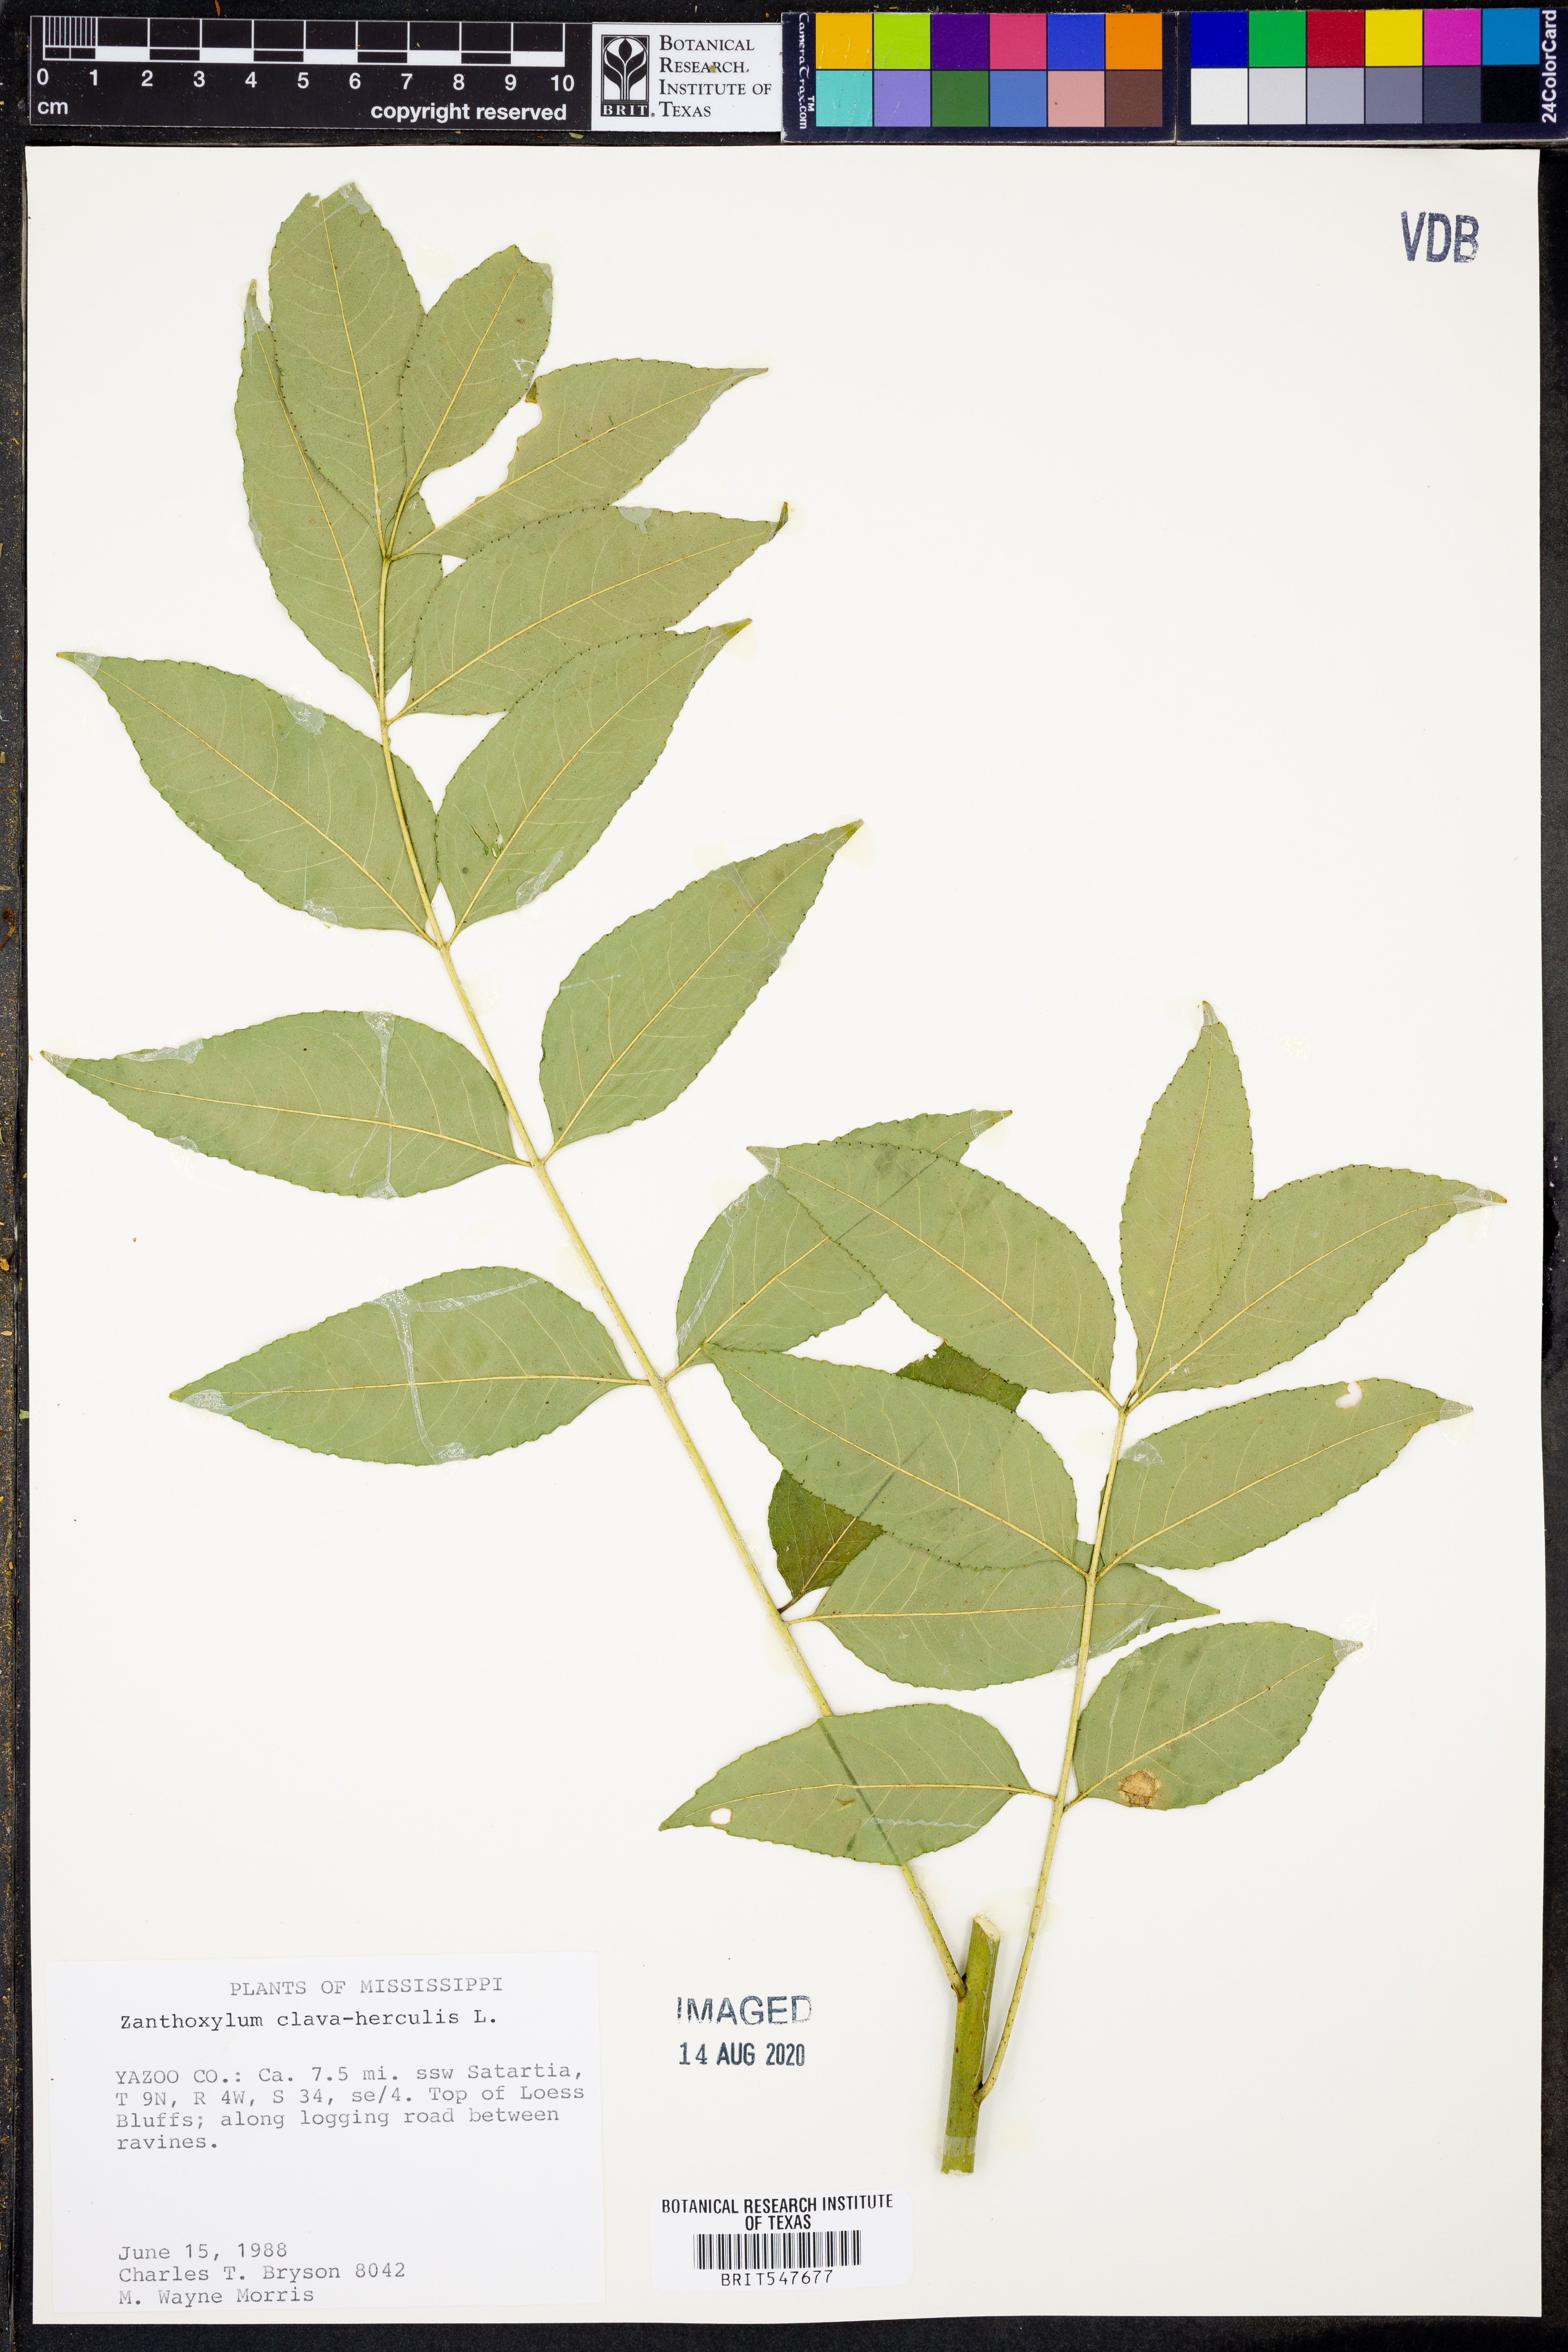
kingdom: Plantae
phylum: Tracheophyta
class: Magnoliopsida
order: Sapindales
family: Rutaceae
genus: Zanthoxylum
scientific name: Zanthoxylum avicennae
